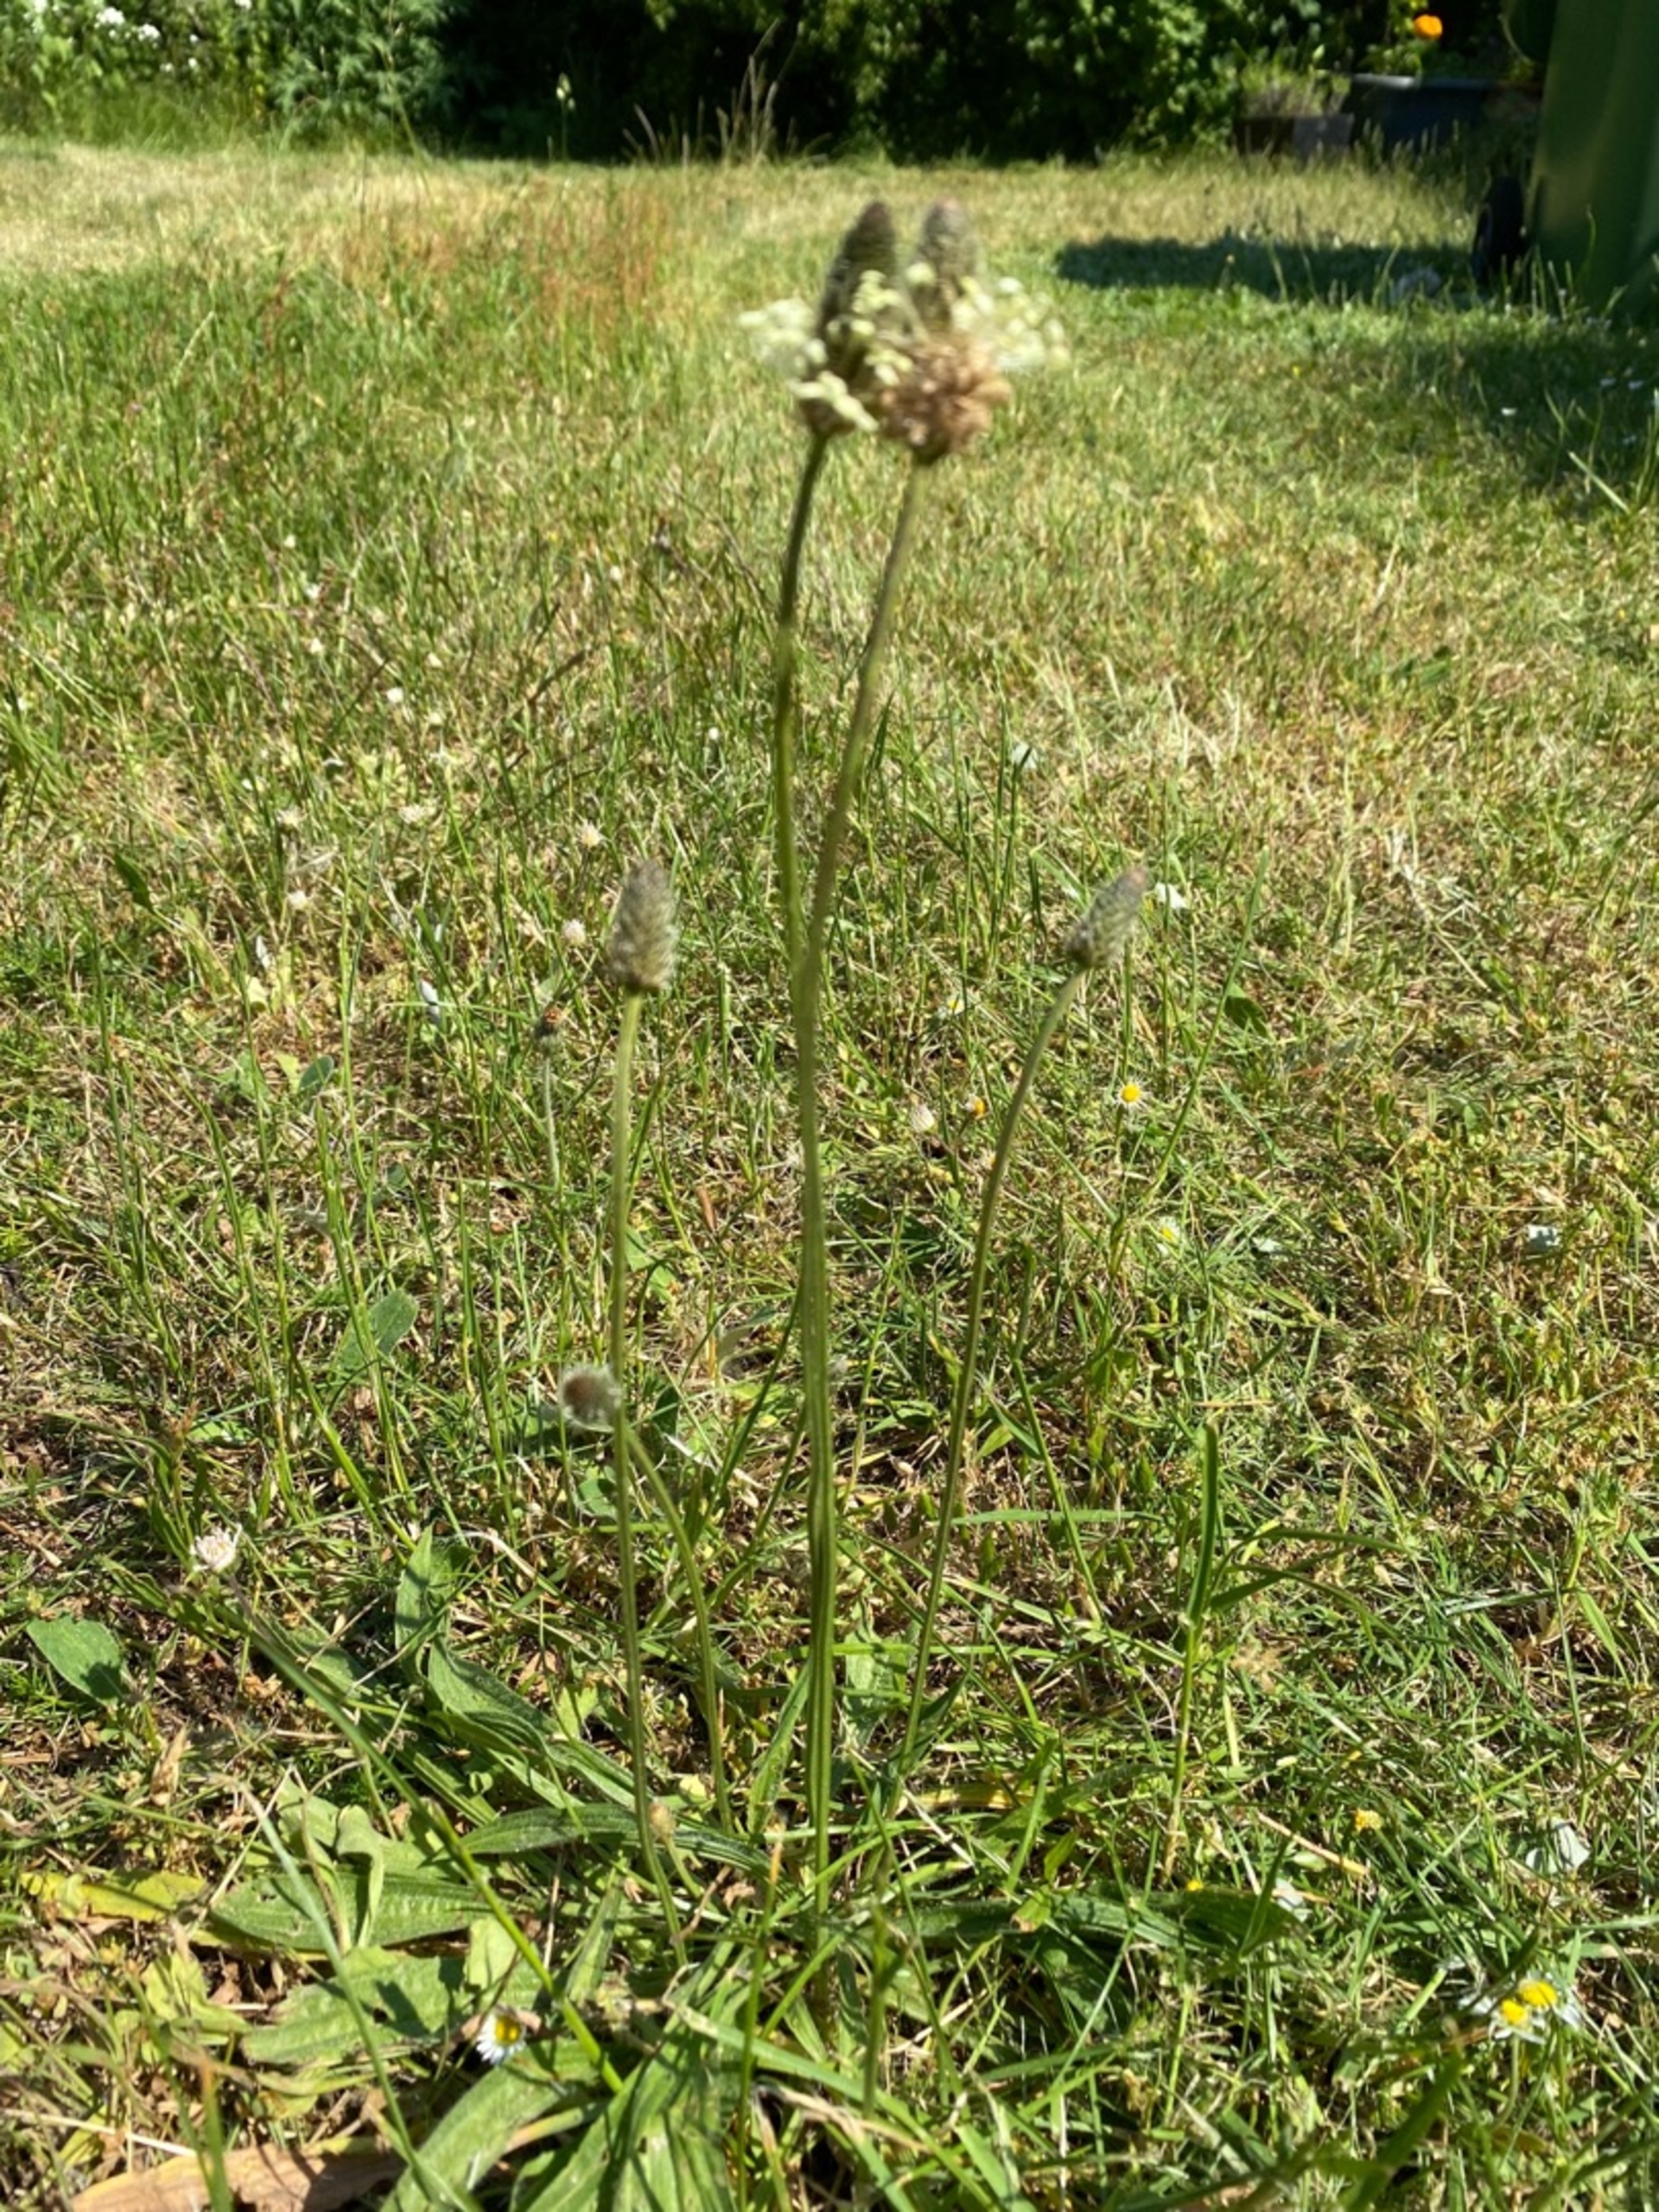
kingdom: Plantae
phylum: Tracheophyta
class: Magnoliopsida
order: Lamiales
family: Plantaginaceae
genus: Plantago
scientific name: Plantago lanceolata
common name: Lancet-vejbred
